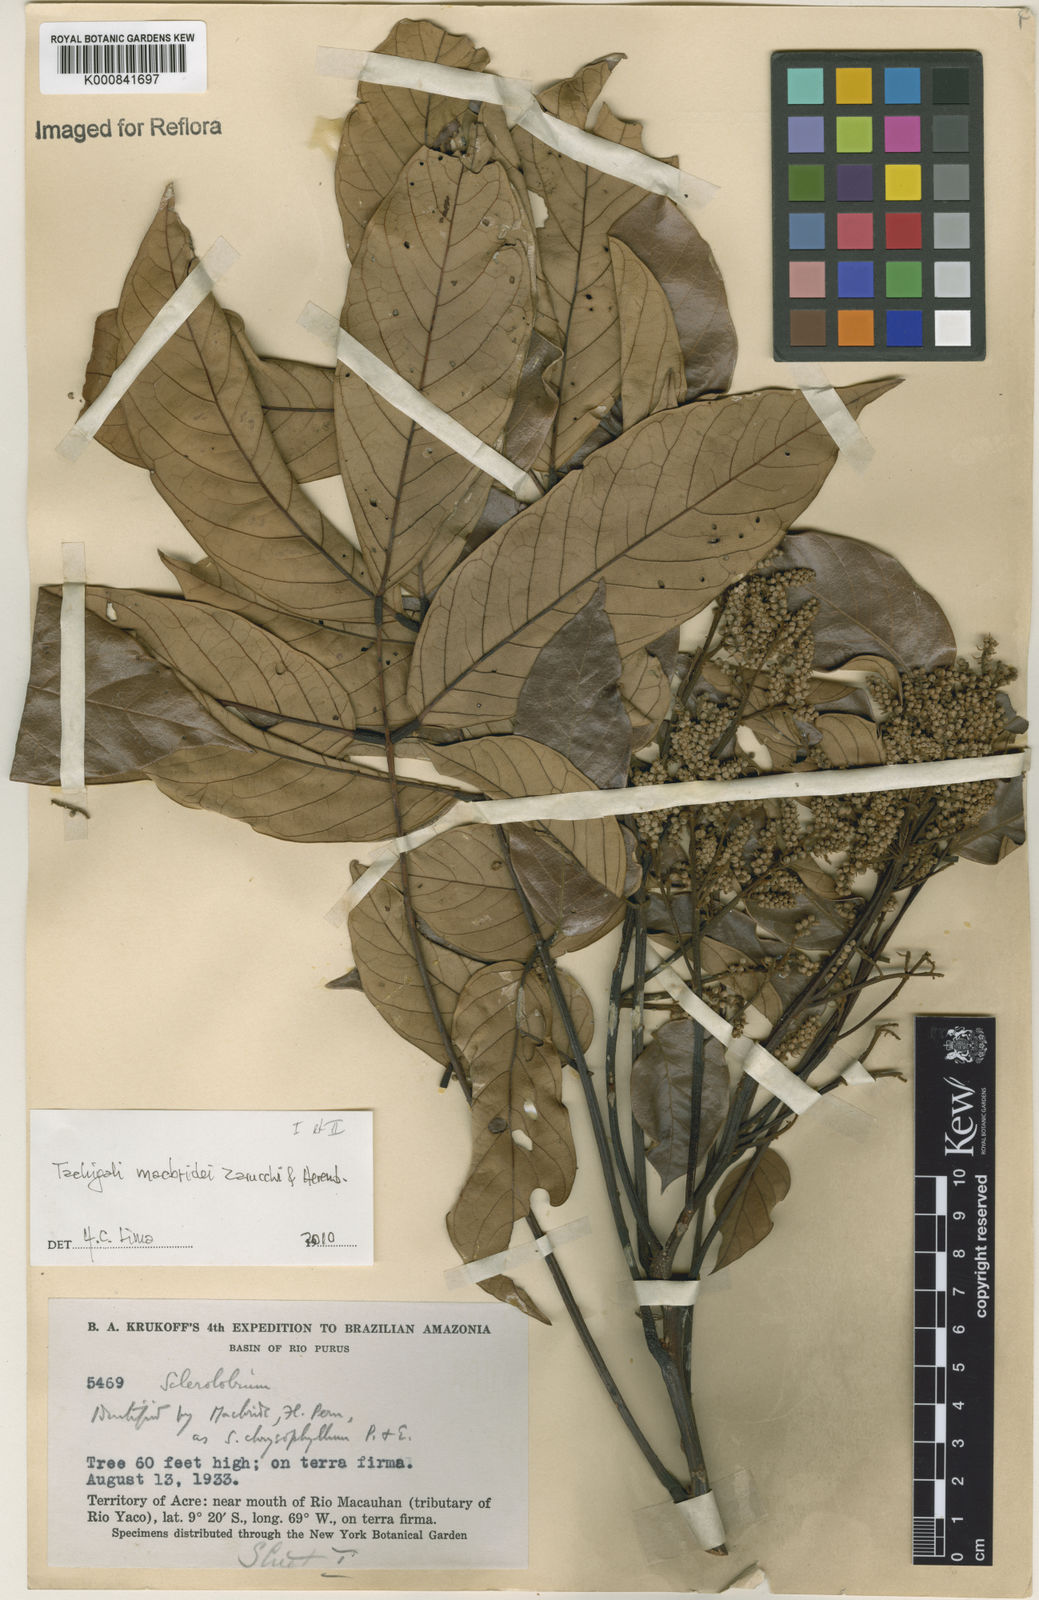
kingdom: Plantae
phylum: Tracheophyta
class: Magnoliopsida
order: Fabales
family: Fabaceae
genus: Tachigali
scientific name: Tachigali macbridei
